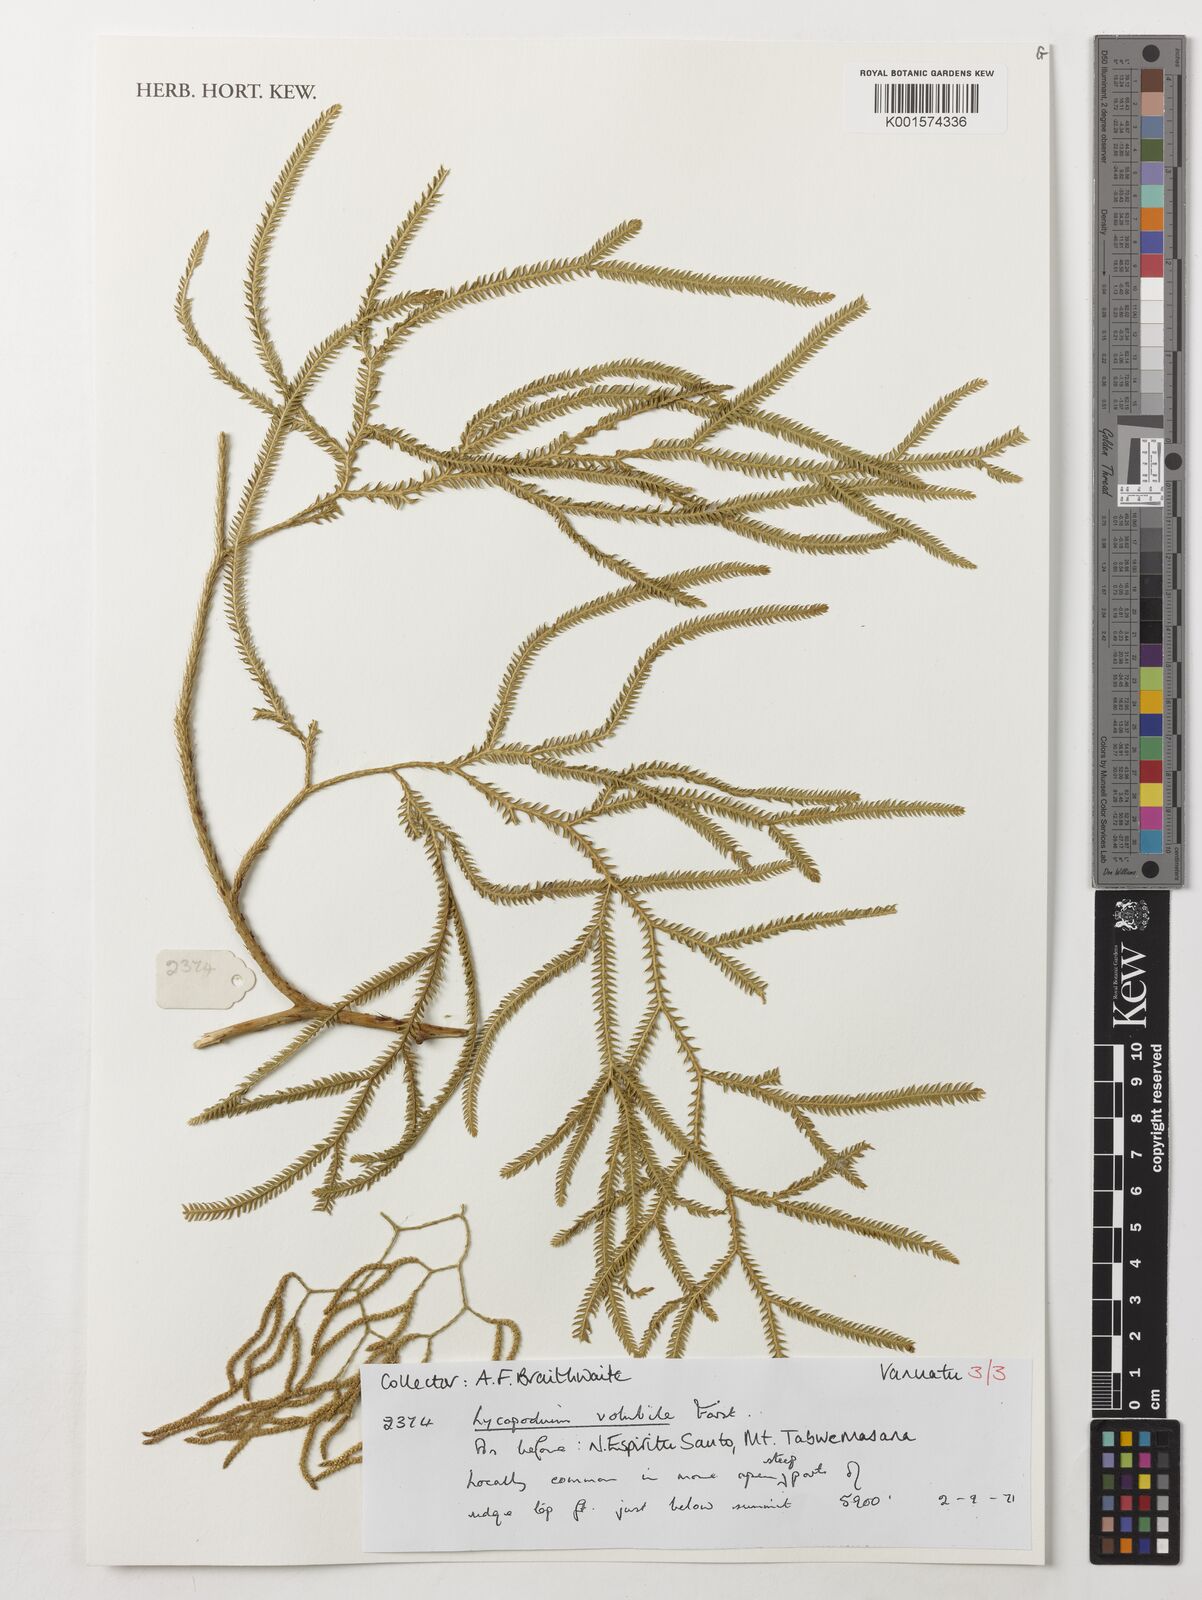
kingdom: Plantae
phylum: Tracheophyta
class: Lycopodiopsida
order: Lycopodiales
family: Lycopodiaceae
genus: Pseudodiphasium
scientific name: Pseudodiphasium volubile
